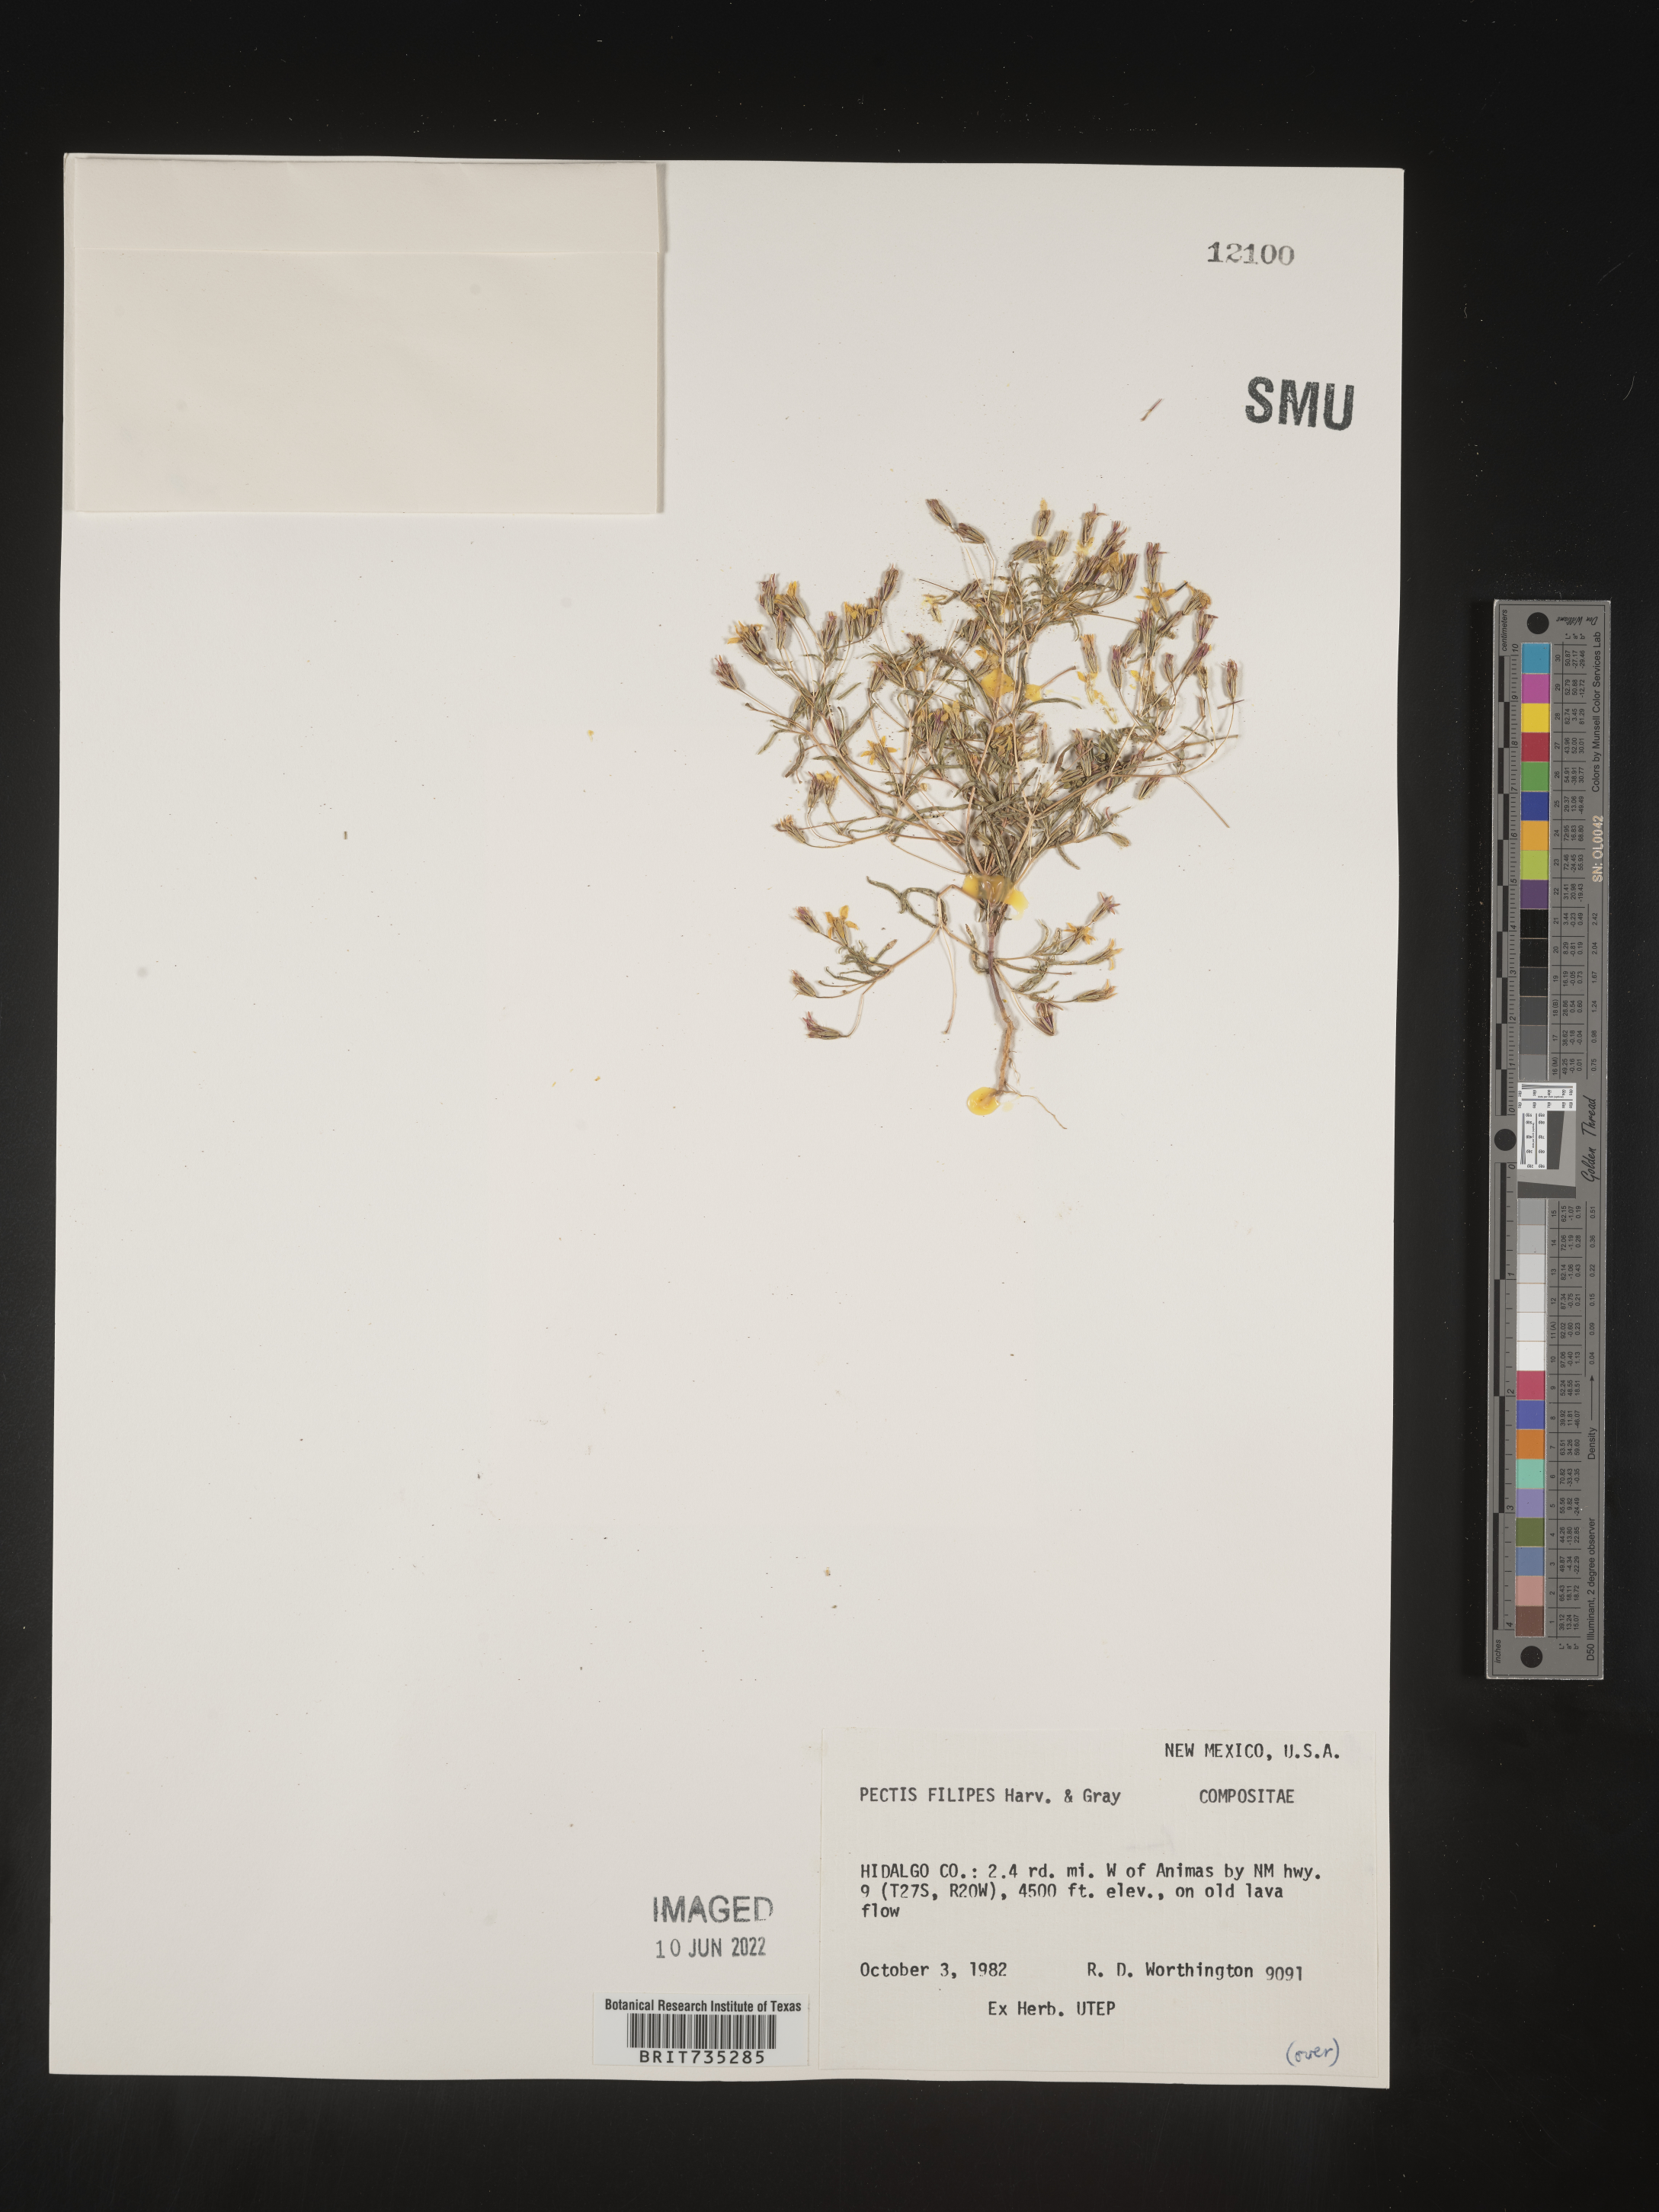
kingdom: Plantae
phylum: Tracheophyta
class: Magnoliopsida
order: Asterales
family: Asteraceae
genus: Pectis
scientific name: Pectis filipes
